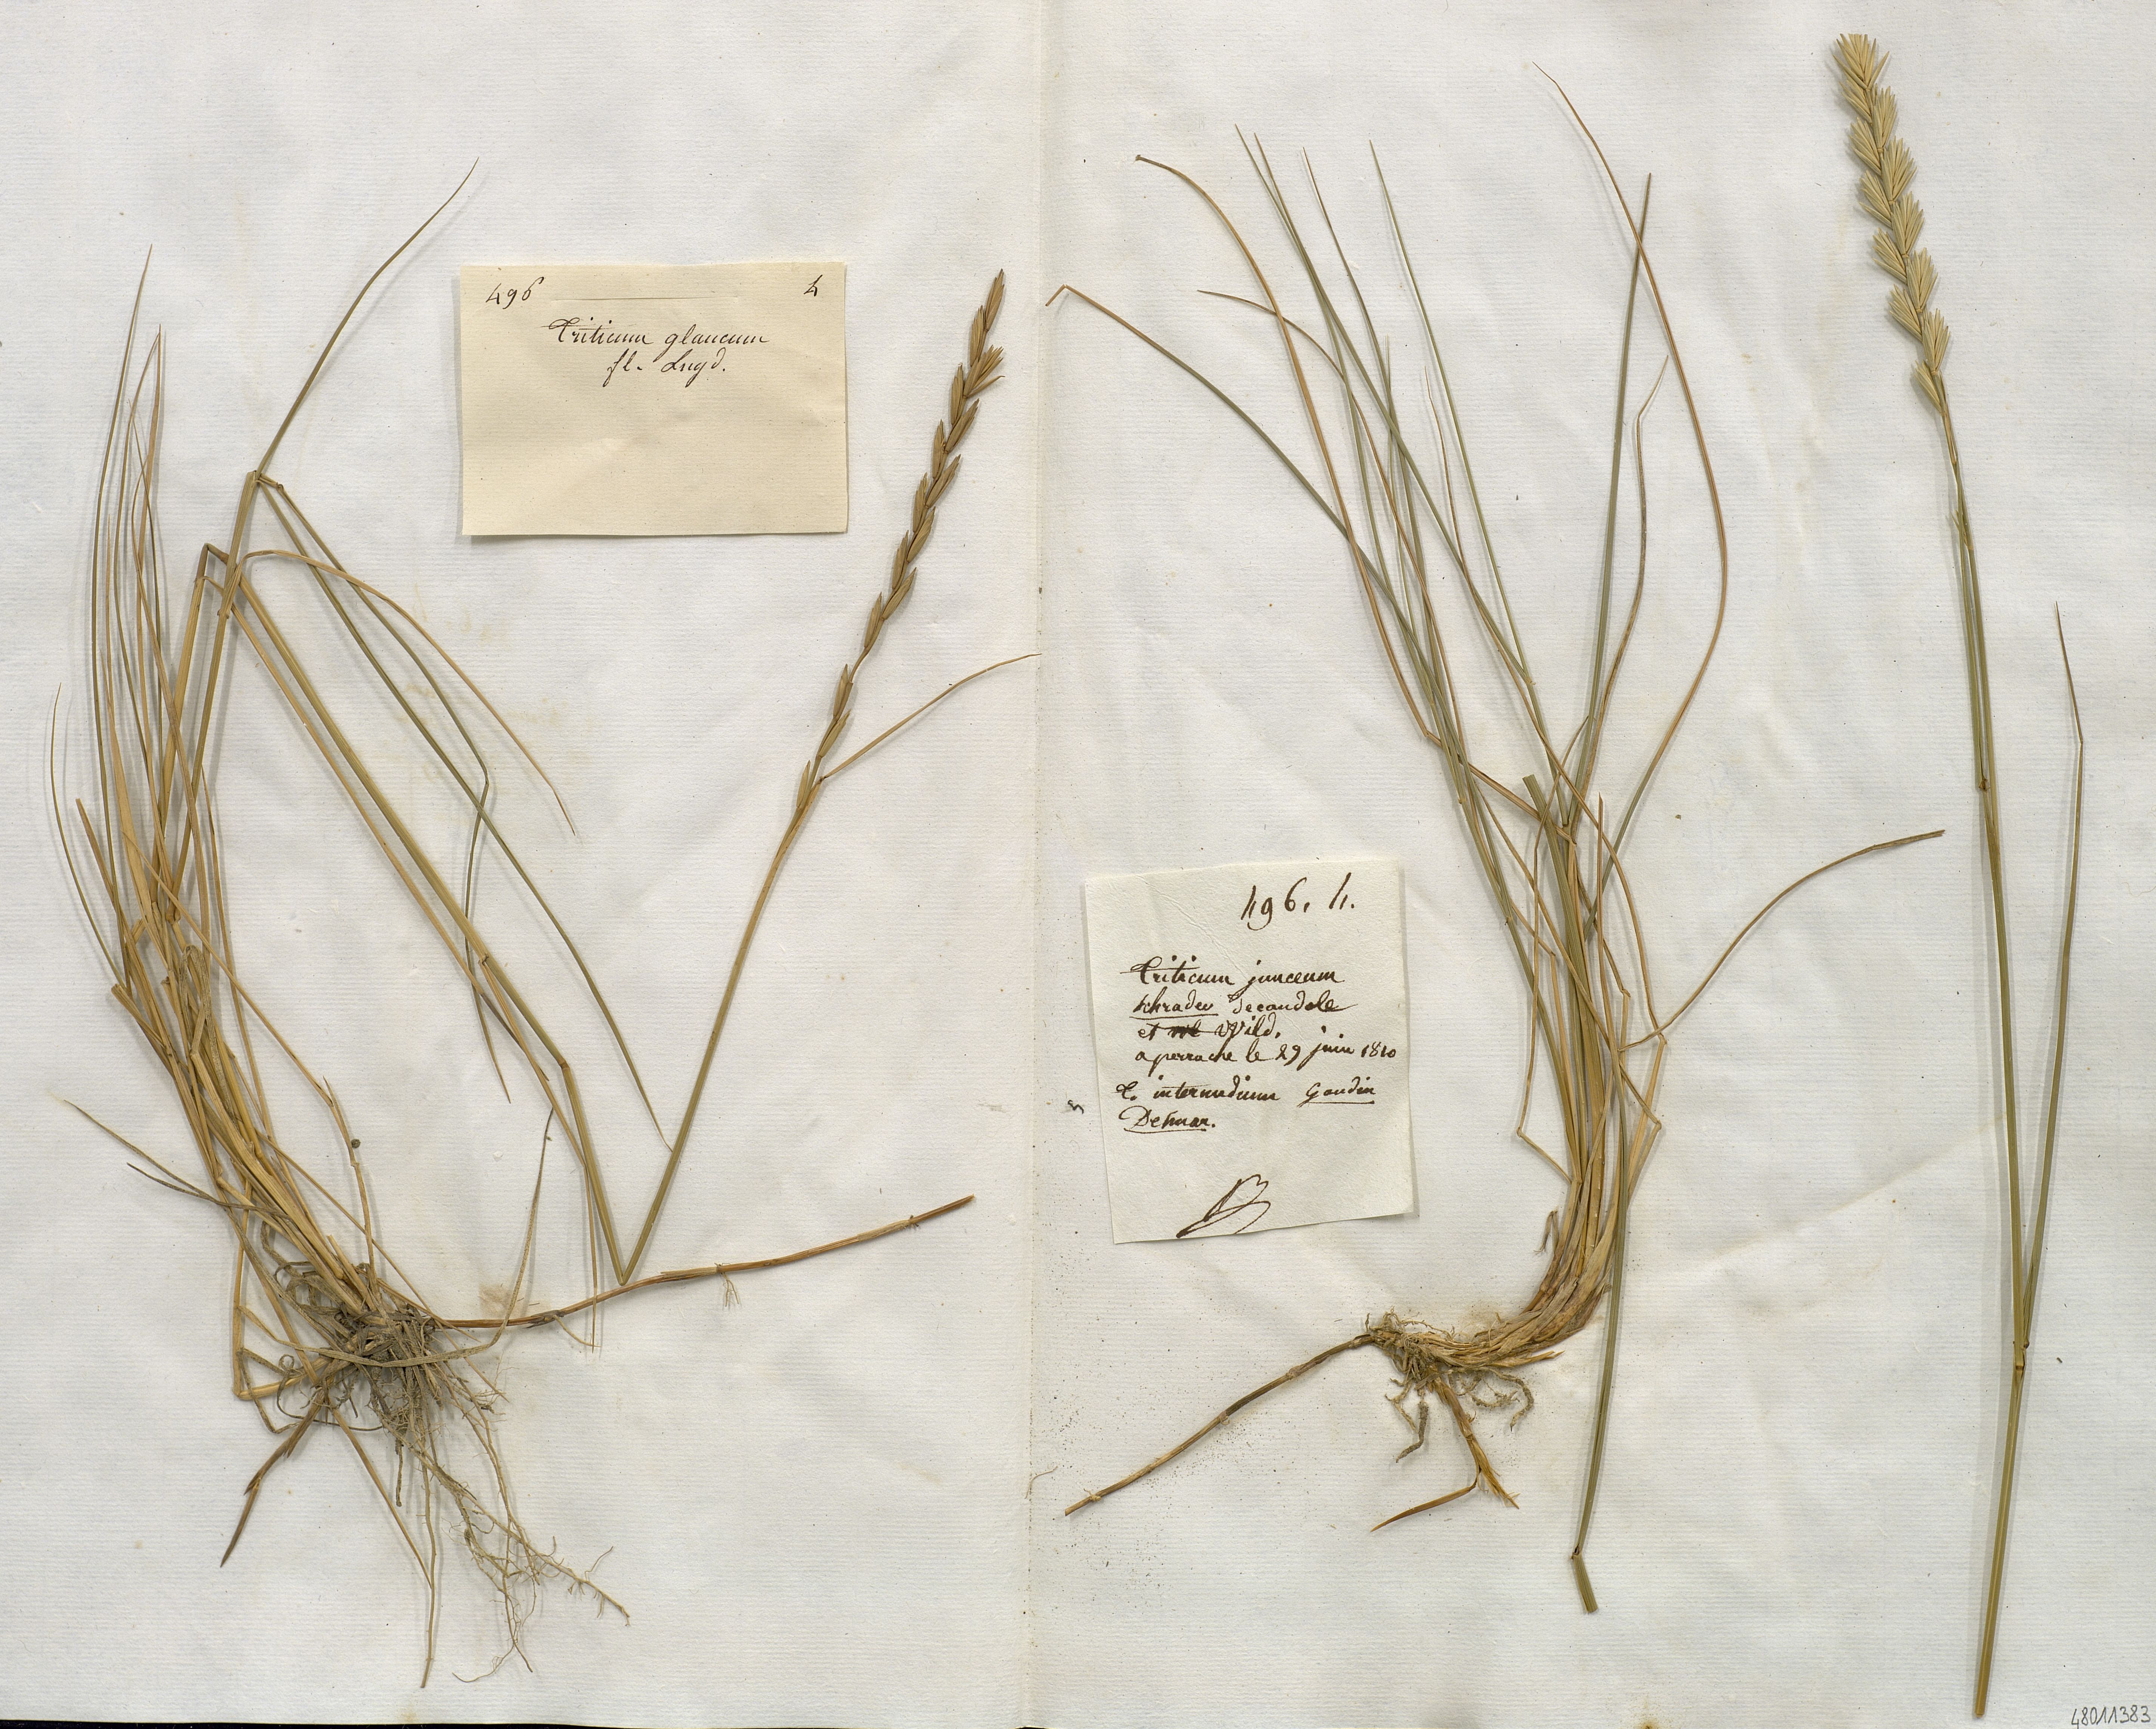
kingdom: Plantae
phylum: Tracheophyta
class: Liliopsida
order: Poales
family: Poaceae
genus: Thinopyrum
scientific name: Thinopyrum
